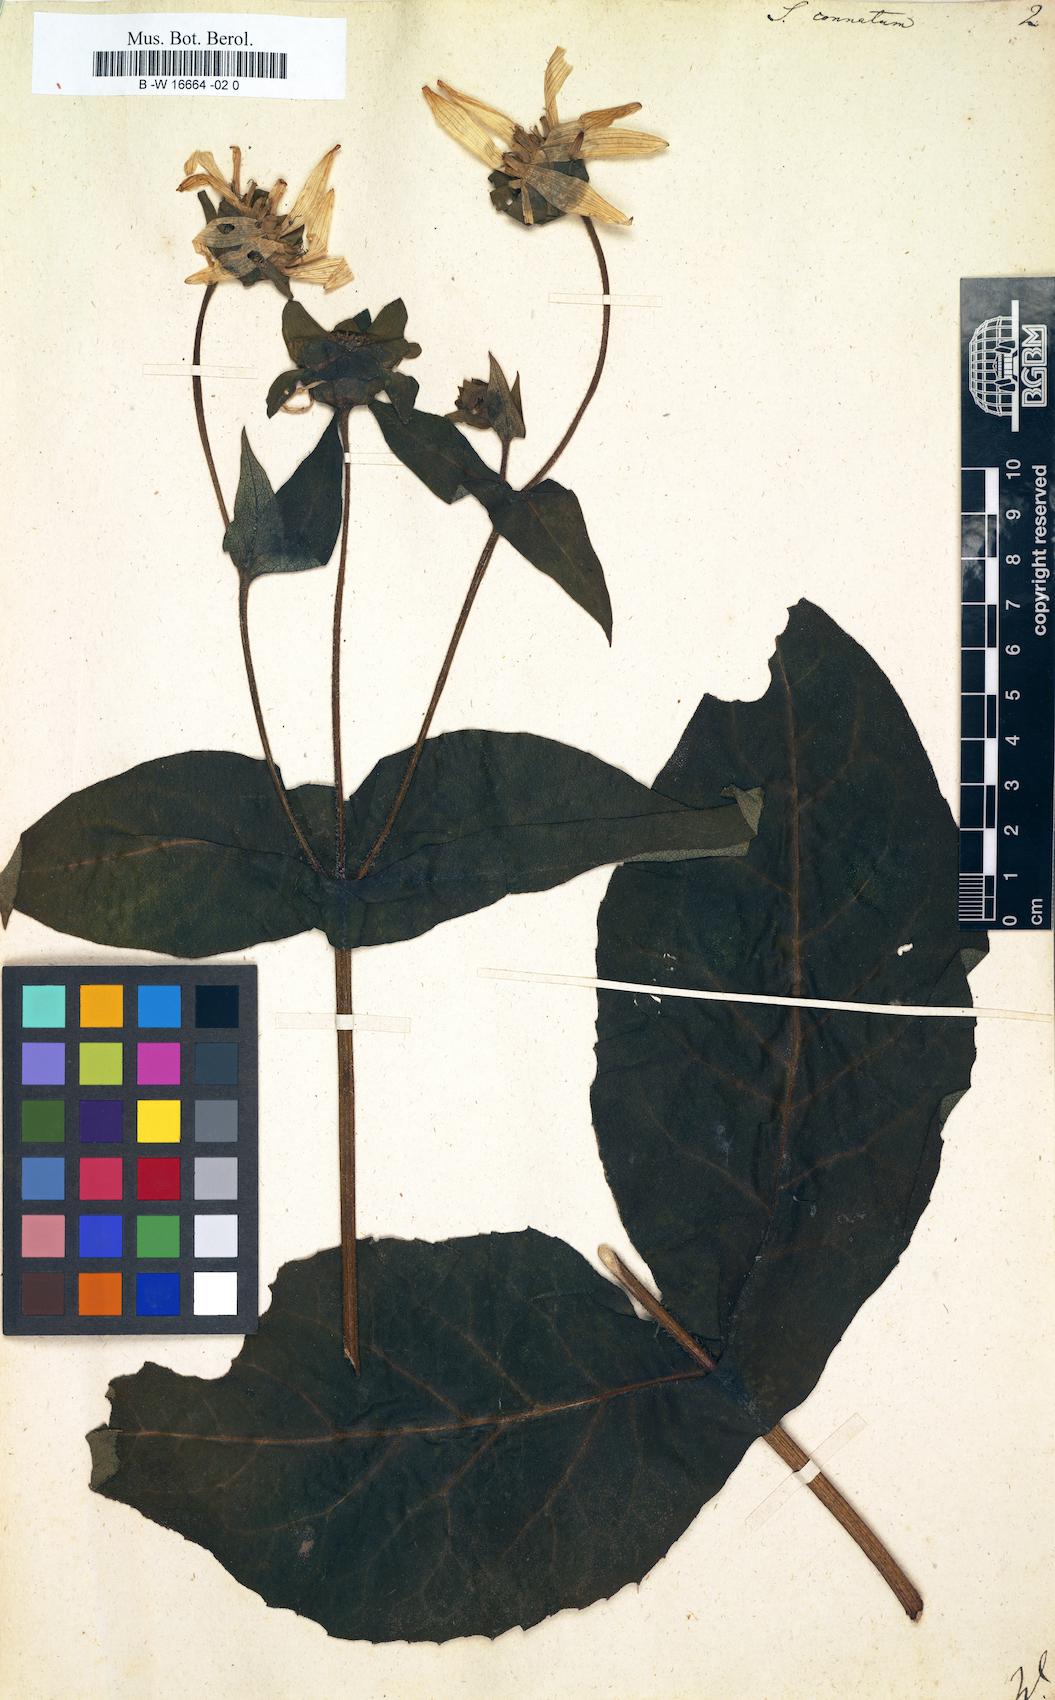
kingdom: Plantae
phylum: Tracheophyta
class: Magnoliopsida
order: Asterales
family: Asteraceae
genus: Silphium
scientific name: Silphium perfoliatum
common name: Cup-plant
